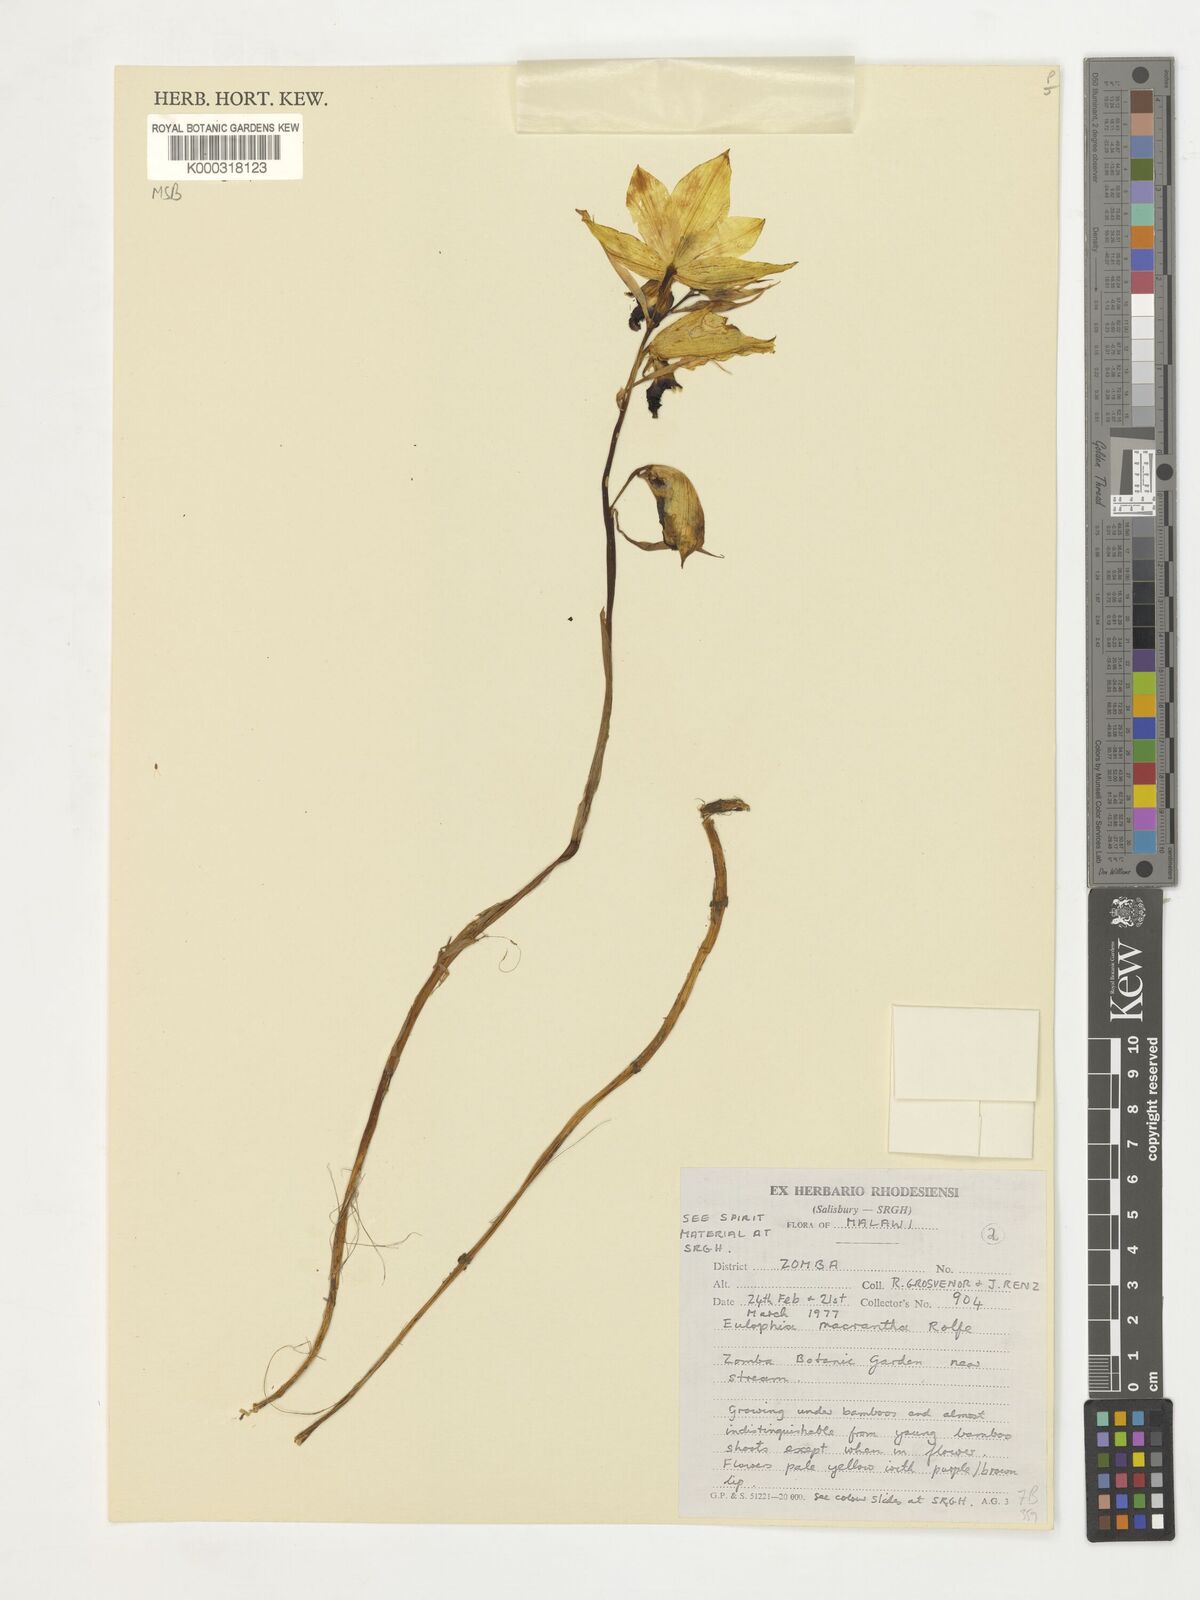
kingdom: Plantae
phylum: Tracheophyta
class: Liliopsida
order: Asparagales
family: Orchidaceae
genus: Eulophia
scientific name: Eulophia macrantha
